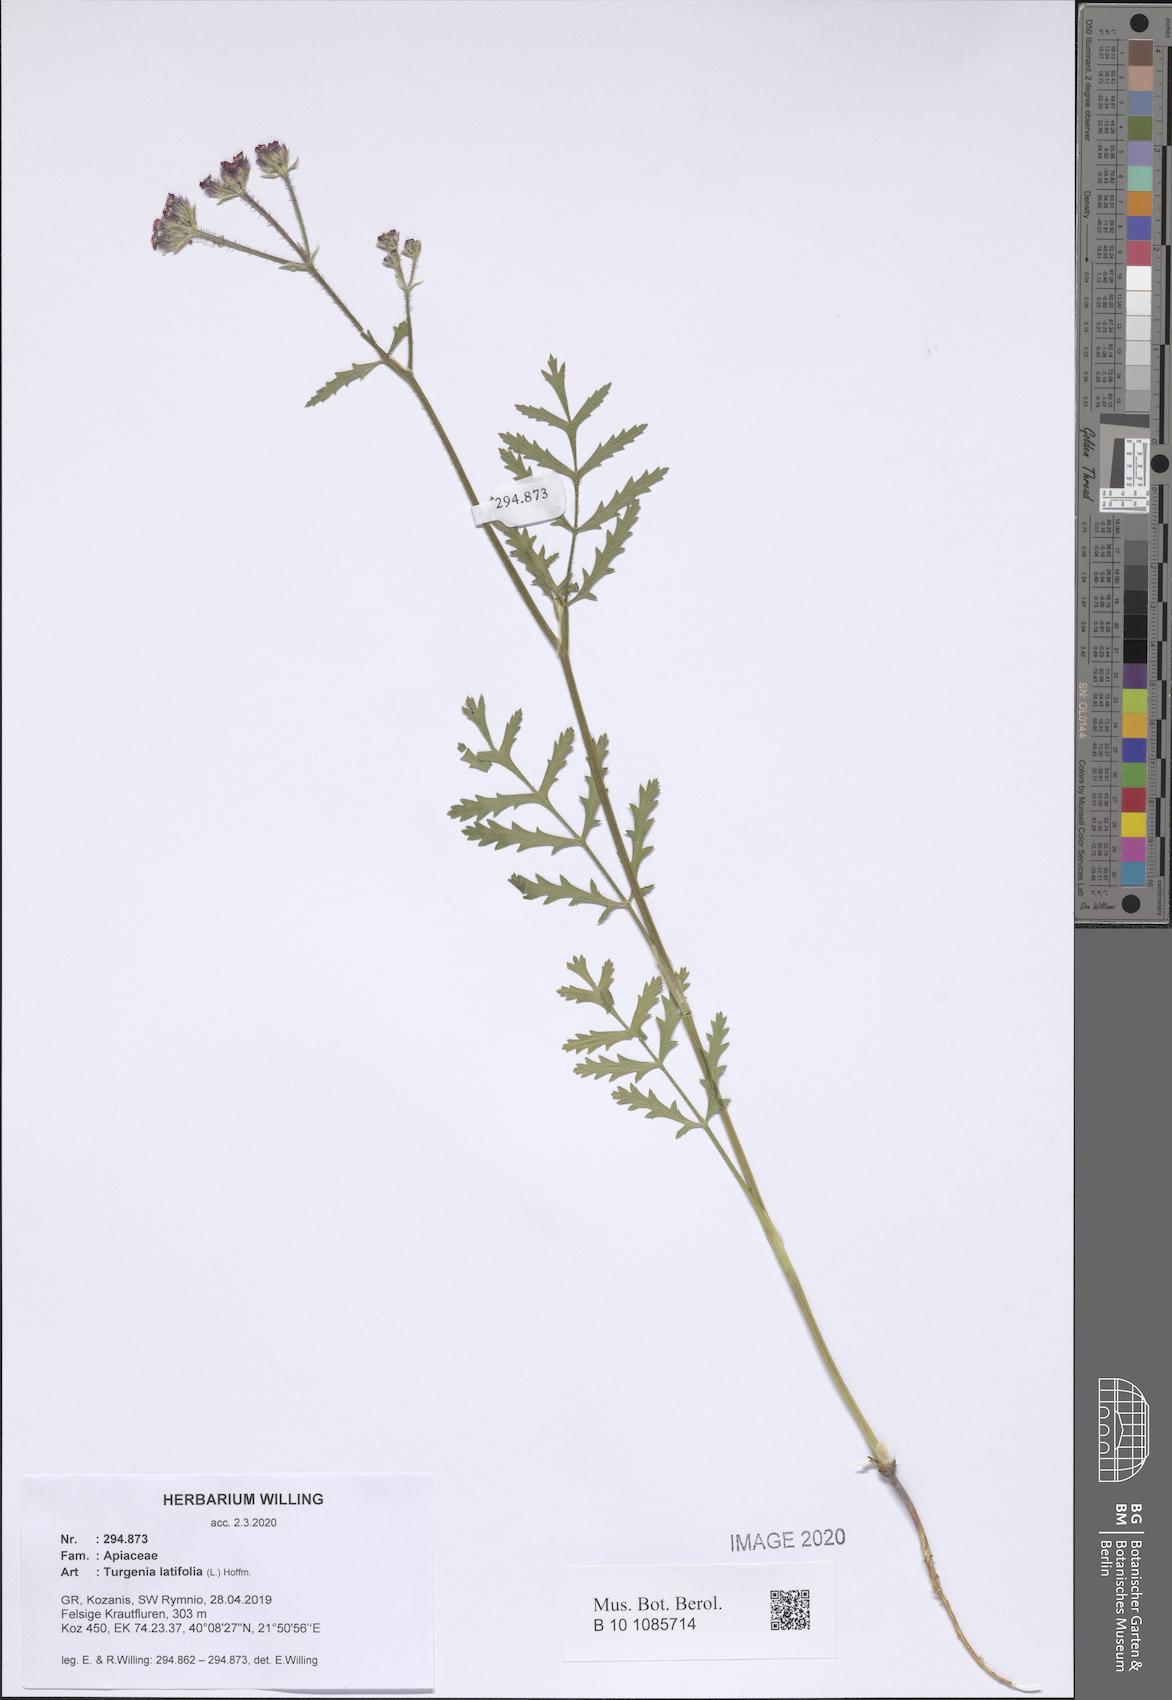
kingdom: Plantae
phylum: Tracheophyta
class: Magnoliopsida
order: Apiales
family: Apiaceae
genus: Turgenia
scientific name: Turgenia latifolia
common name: Greater bur-parsley
